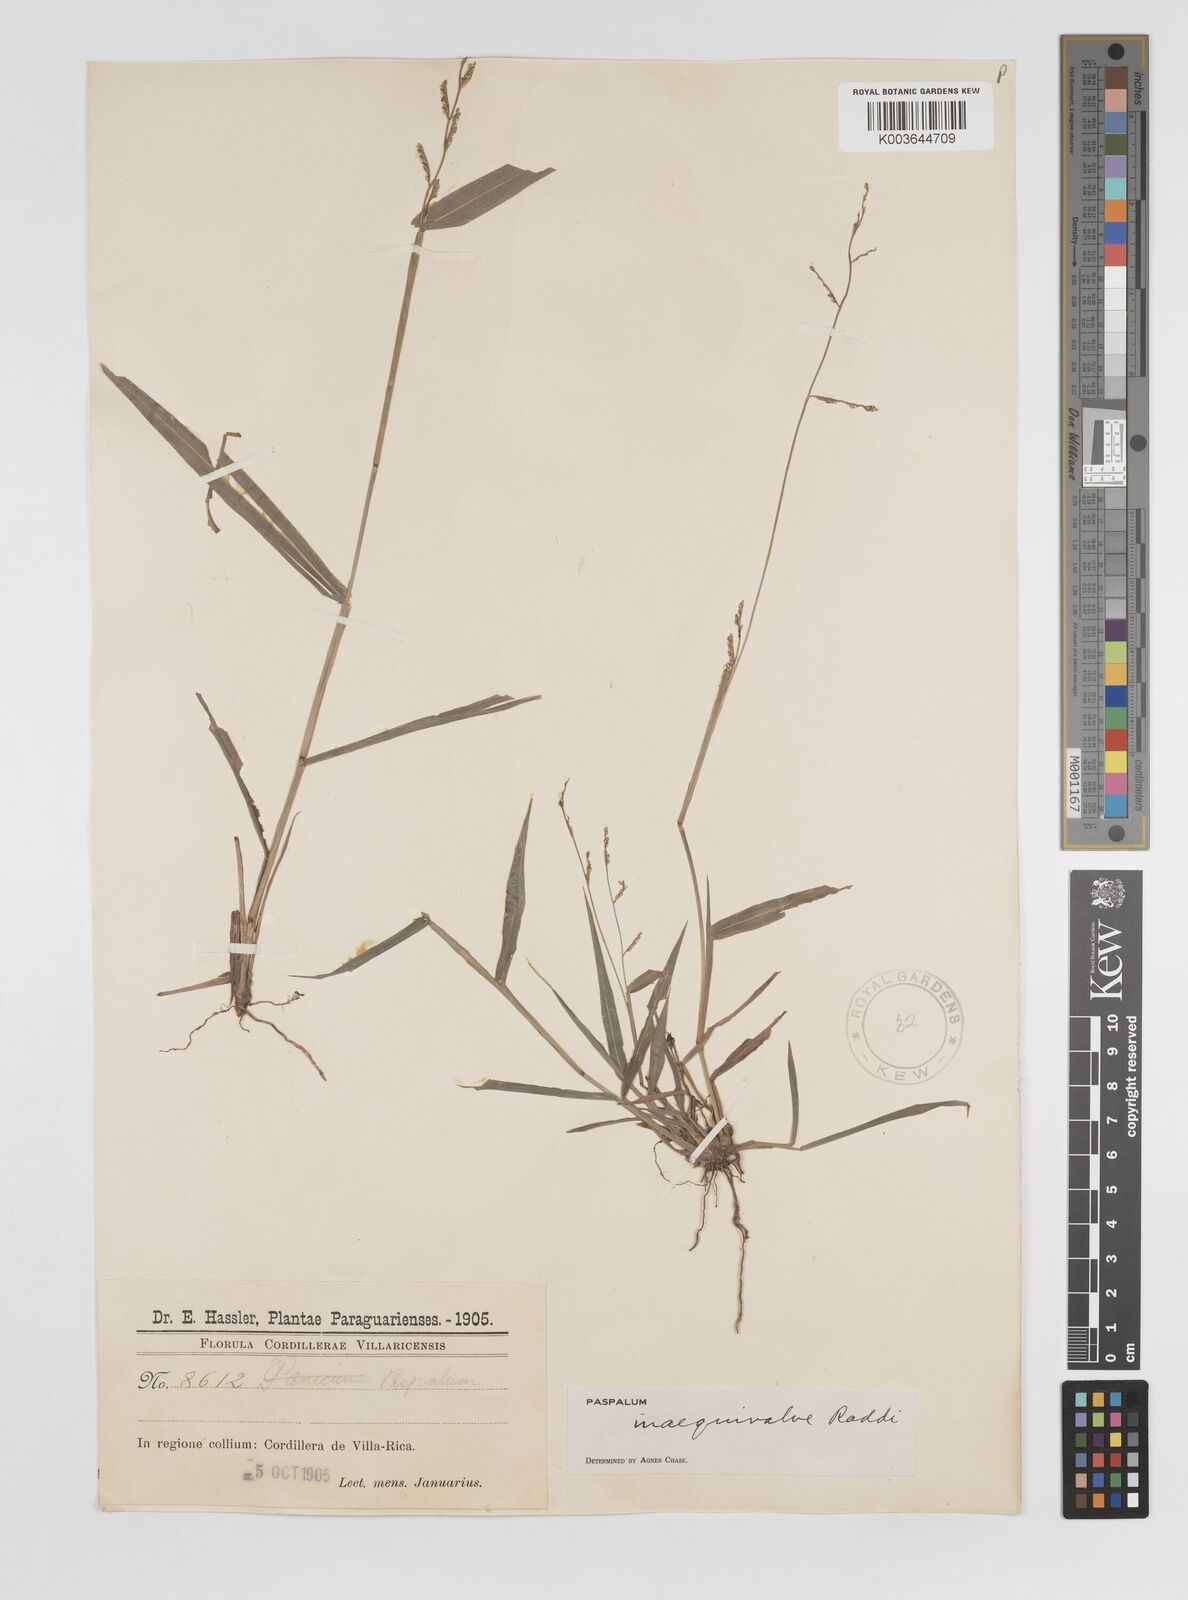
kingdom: Plantae
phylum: Tracheophyta
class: Liliopsida
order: Poales
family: Poaceae
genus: Paspalum
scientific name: Paspalum inaequivalve
